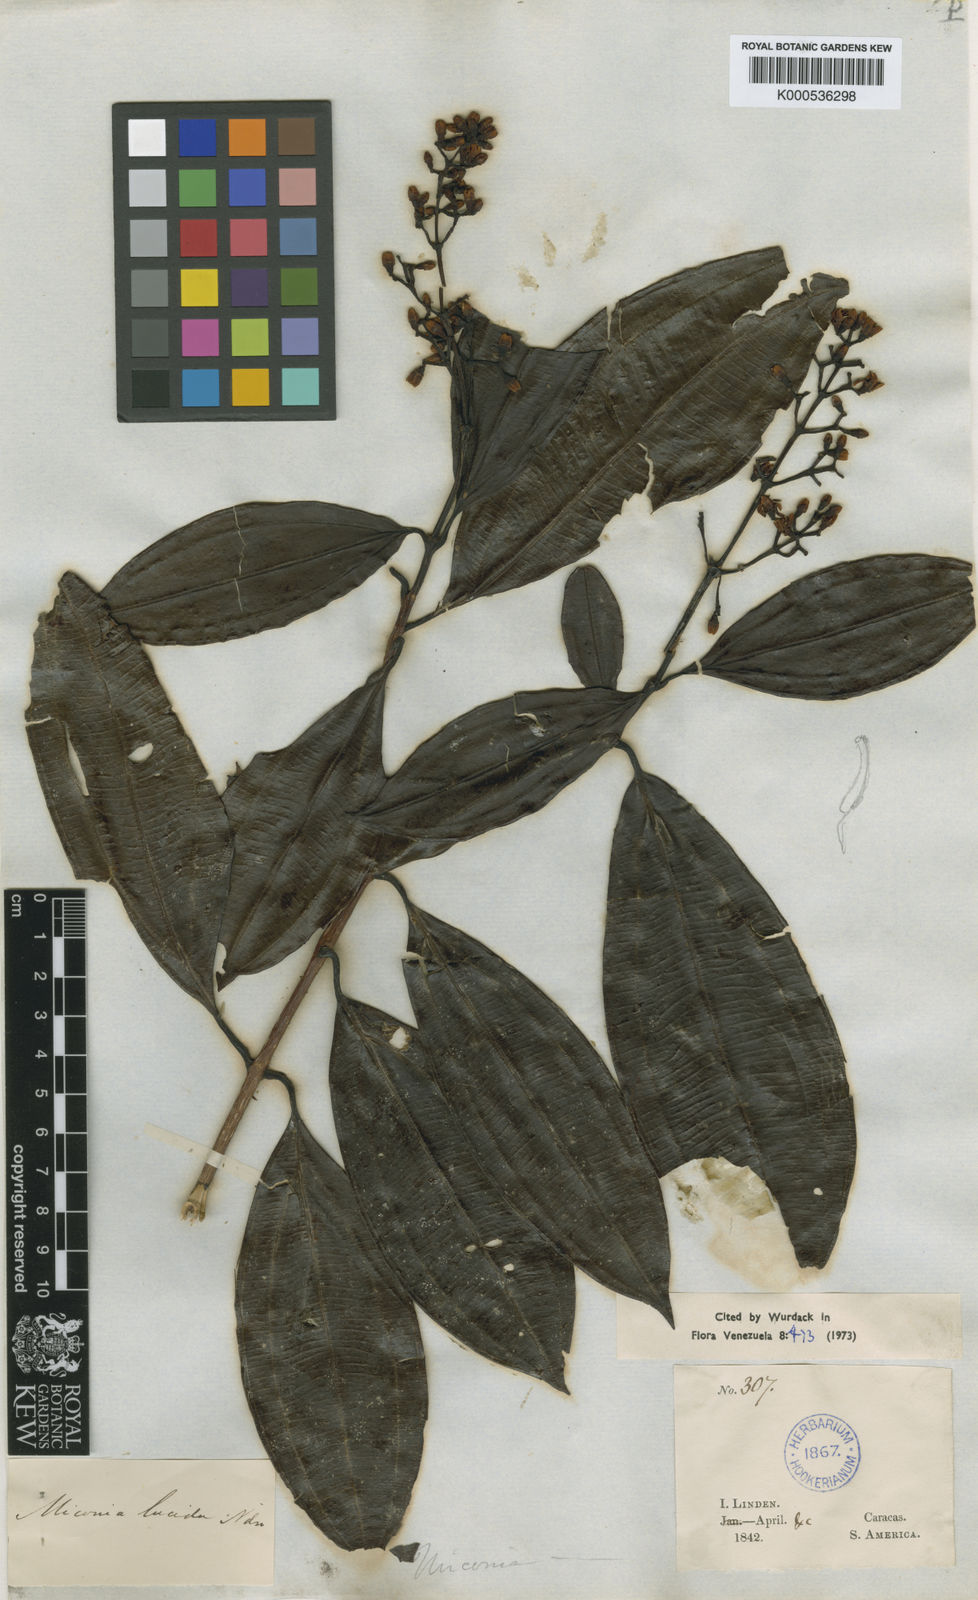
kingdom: Plantae
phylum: Tracheophyta
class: Magnoliopsida
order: Myrtales
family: Melastomataceae
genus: Miconia
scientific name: Miconia lucida
